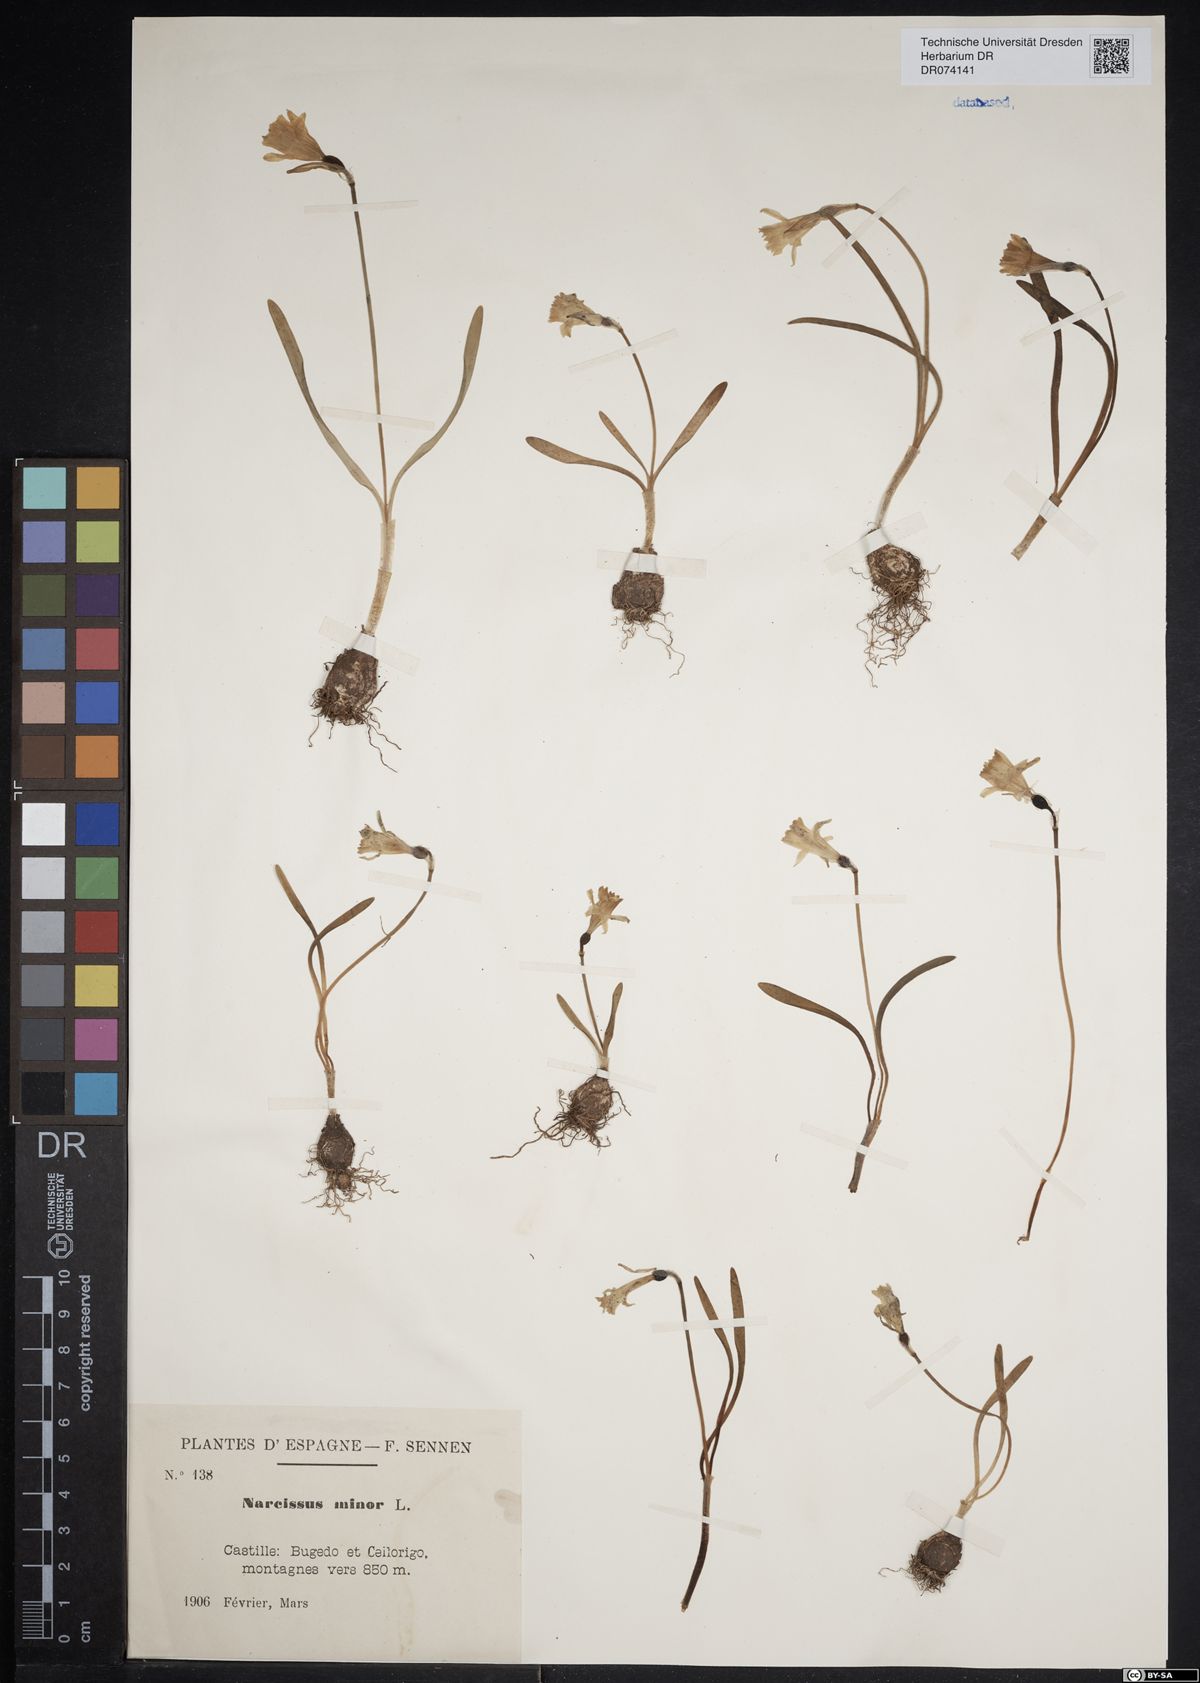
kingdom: Plantae
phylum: Tracheophyta
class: Liliopsida
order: Asparagales
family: Amaryllidaceae
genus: Narcissus
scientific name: Narcissus minor
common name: Lesser daffodil
